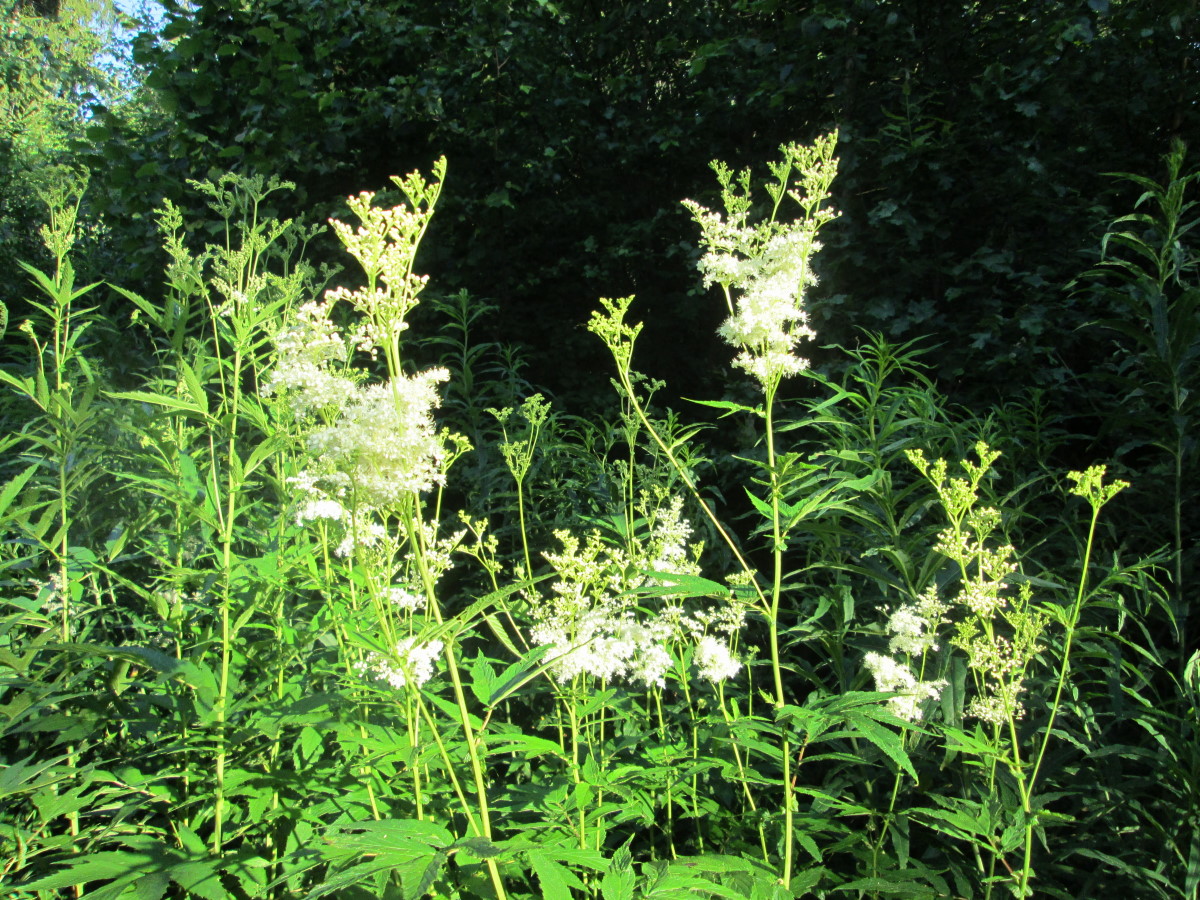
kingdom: Plantae
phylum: Tracheophyta
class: Magnoliopsida
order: Rosales
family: Rosaceae
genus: Filipendula
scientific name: Filipendula ulmaria
